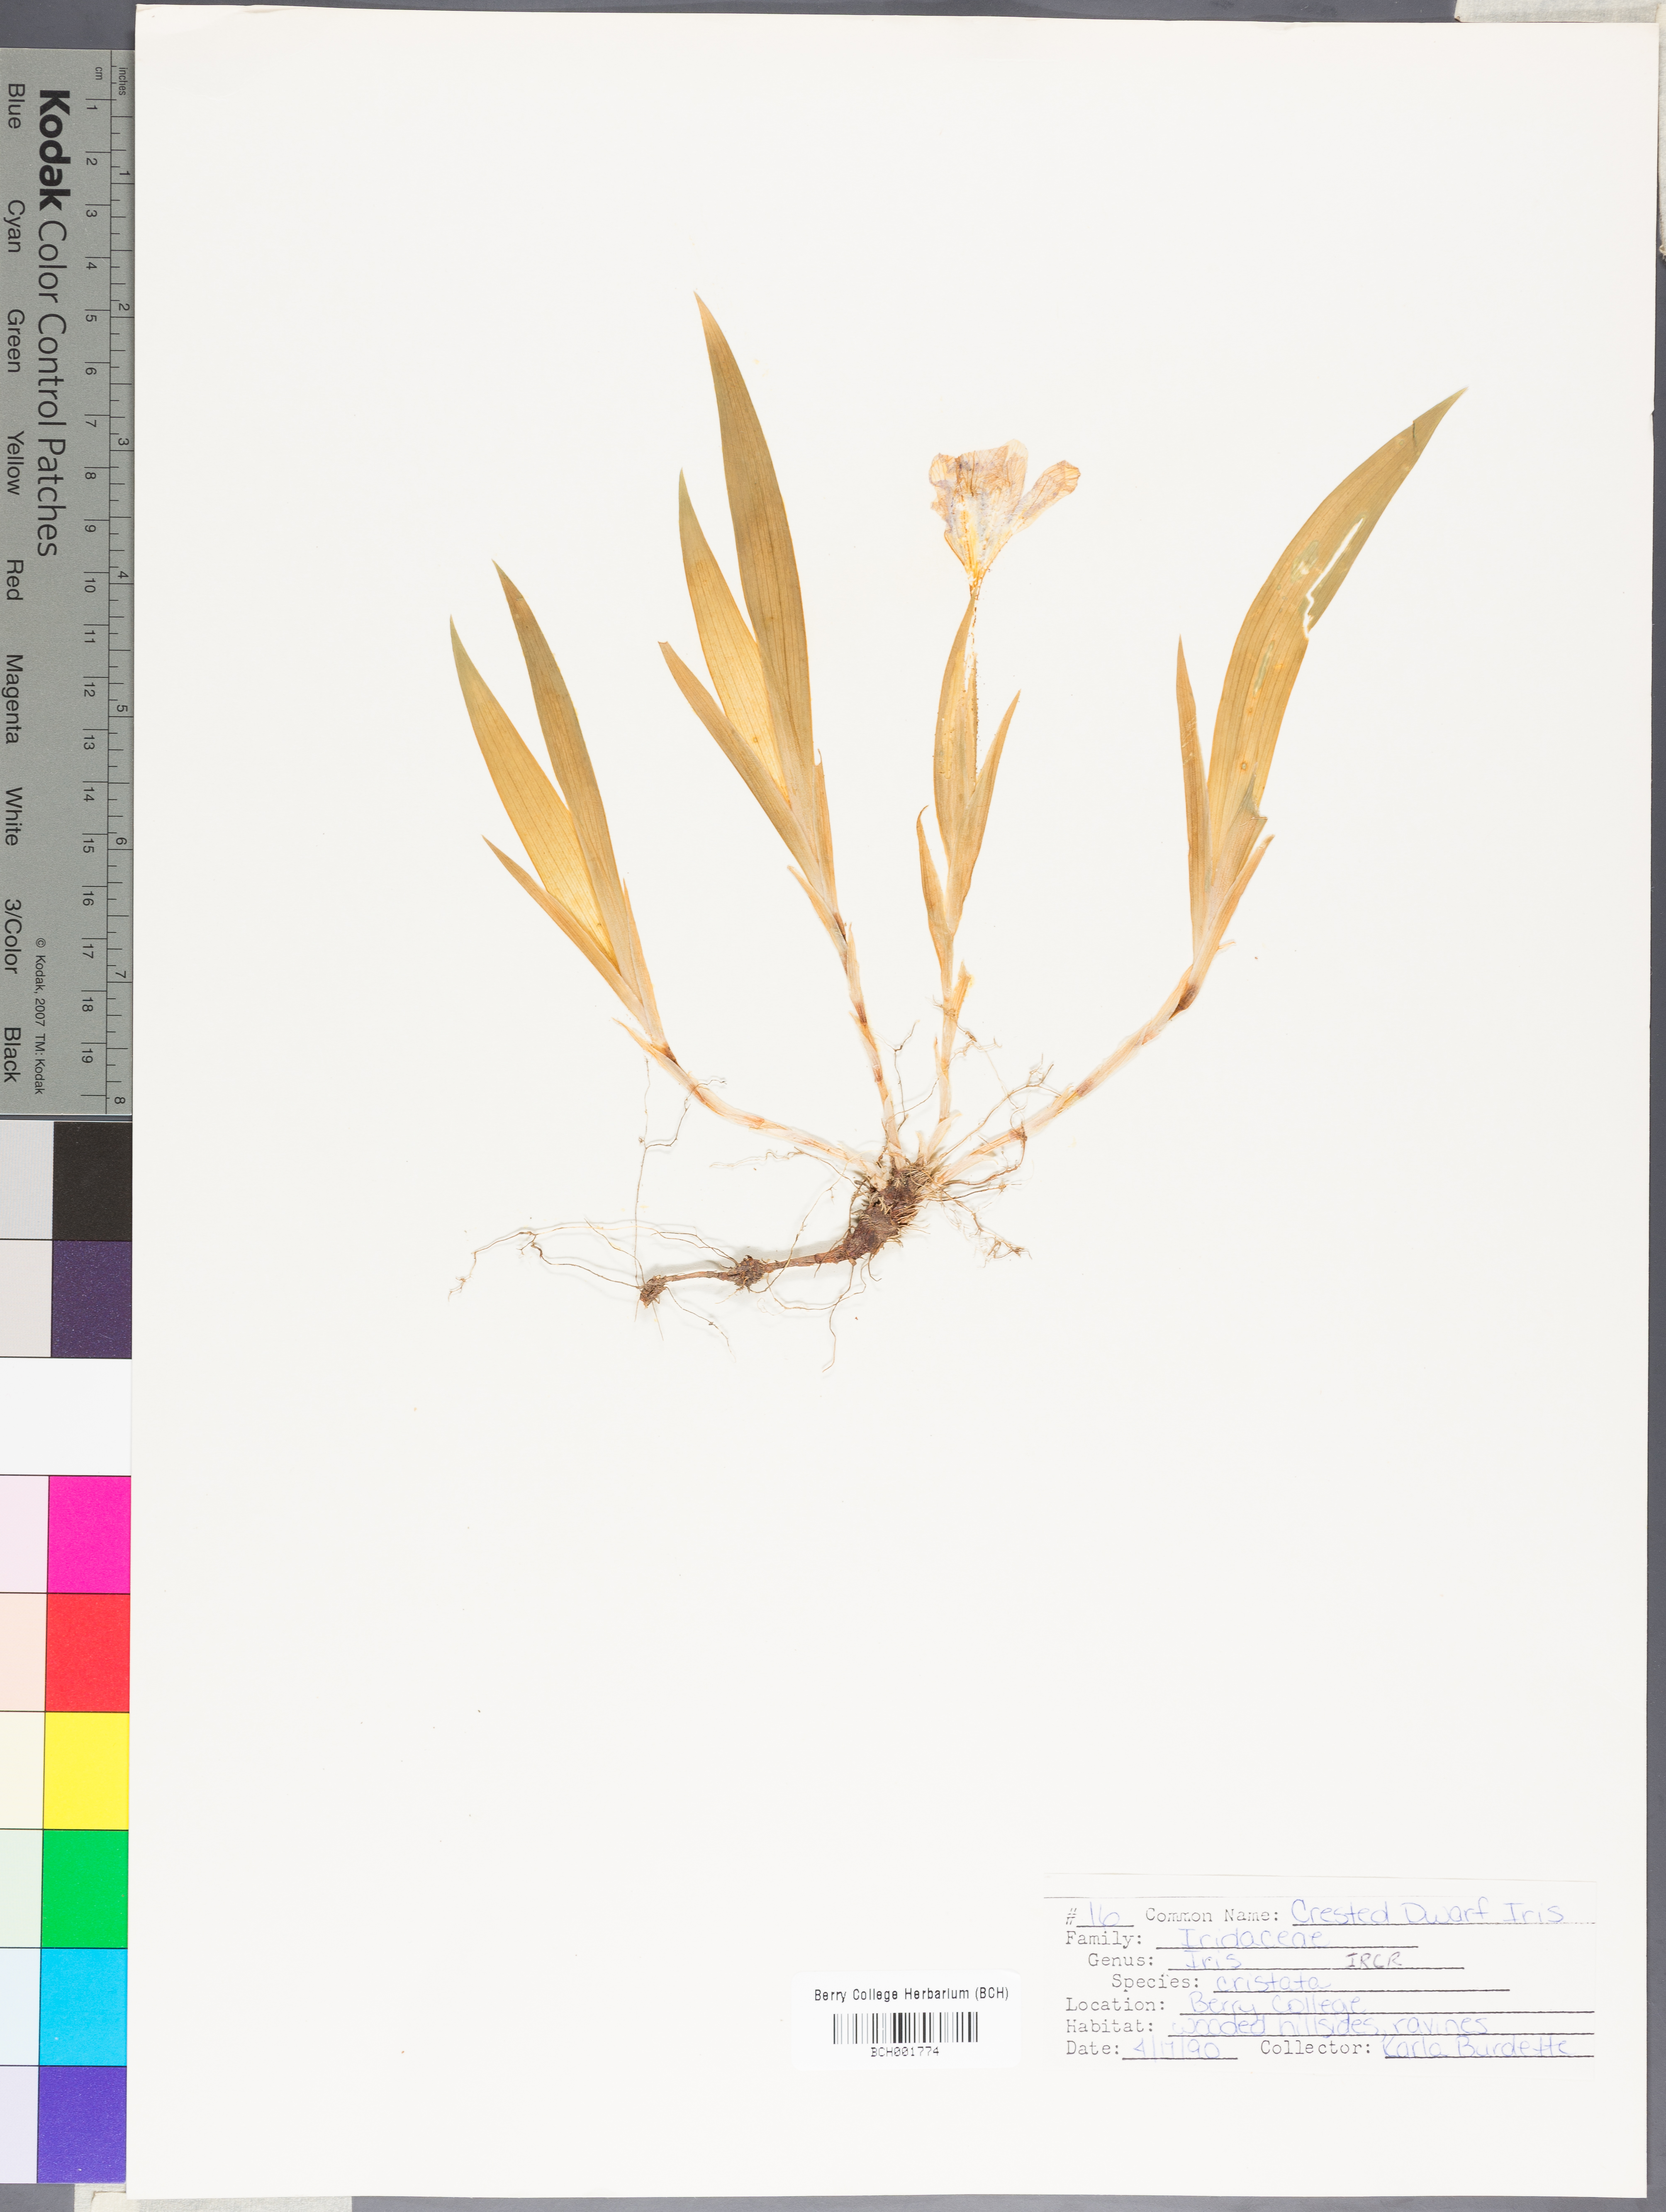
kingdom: Plantae
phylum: Tracheophyta
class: Liliopsida
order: Asparagales
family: Iridaceae
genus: Iris
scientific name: Iris cristata
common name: Crested iris
